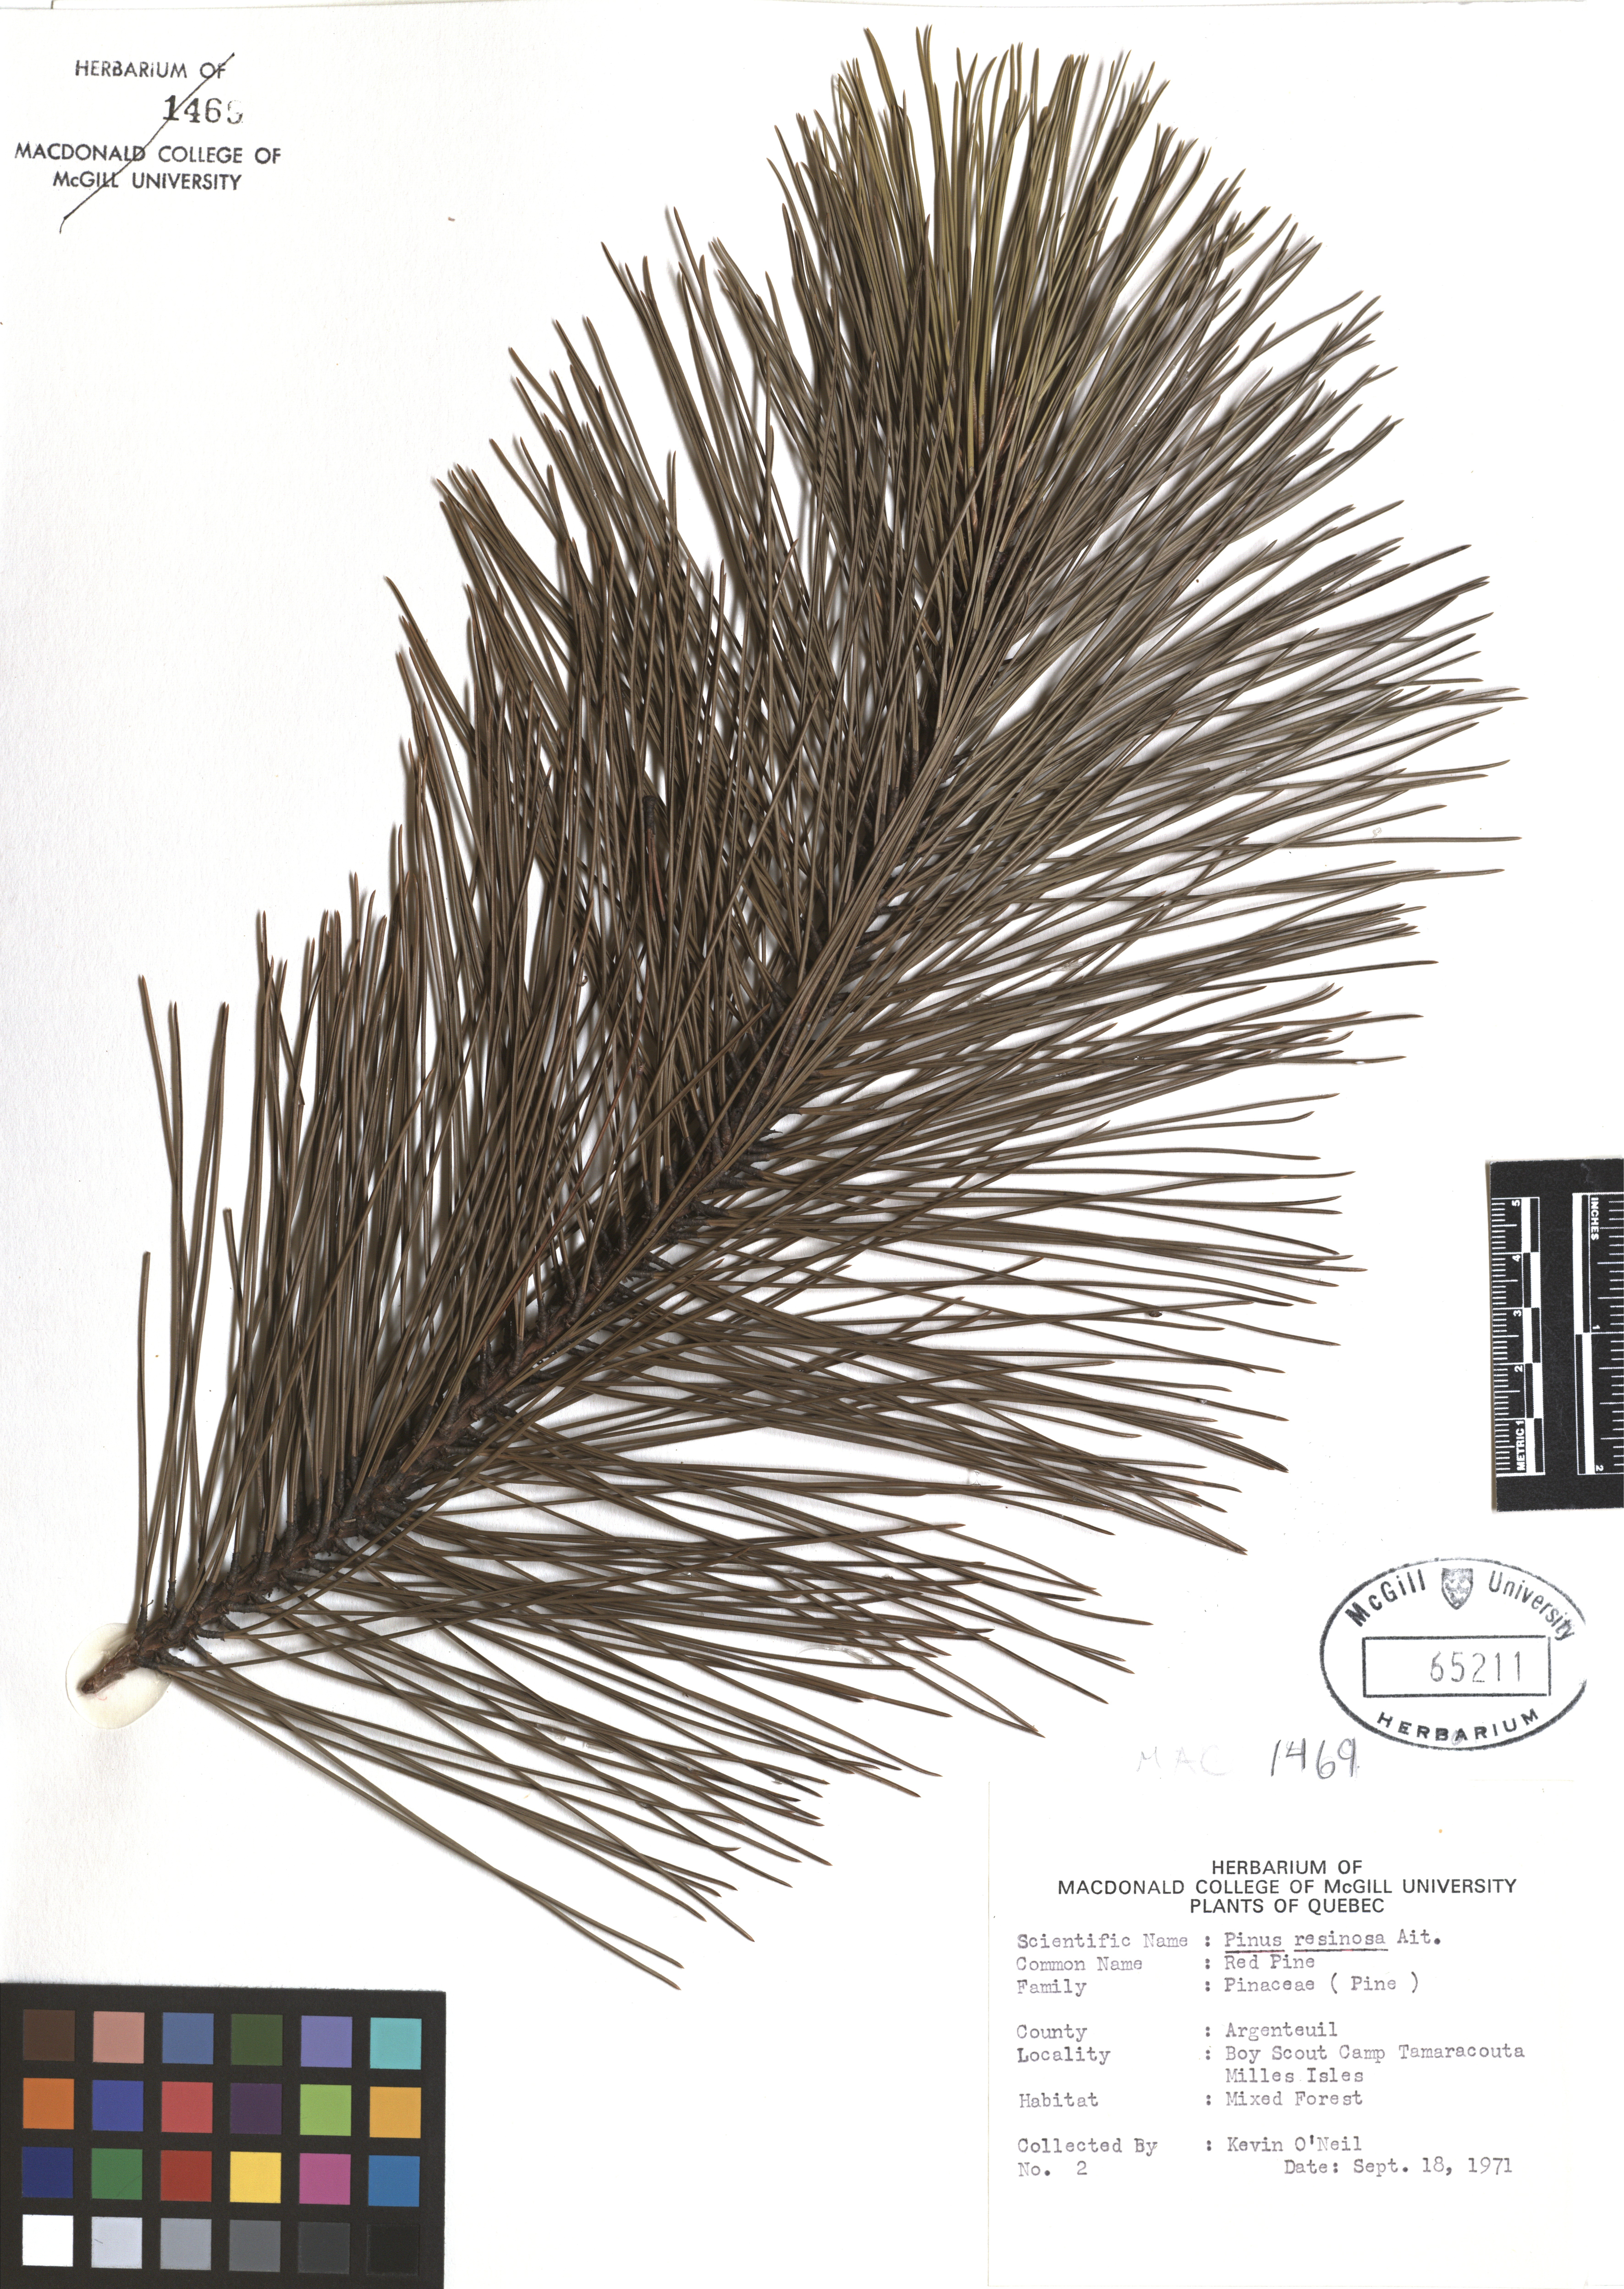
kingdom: Plantae
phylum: Tracheophyta
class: Pinopsida
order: Pinales
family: Pinaceae
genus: Pinus
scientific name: Pinus hartwegii
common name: Hartweg's pine
